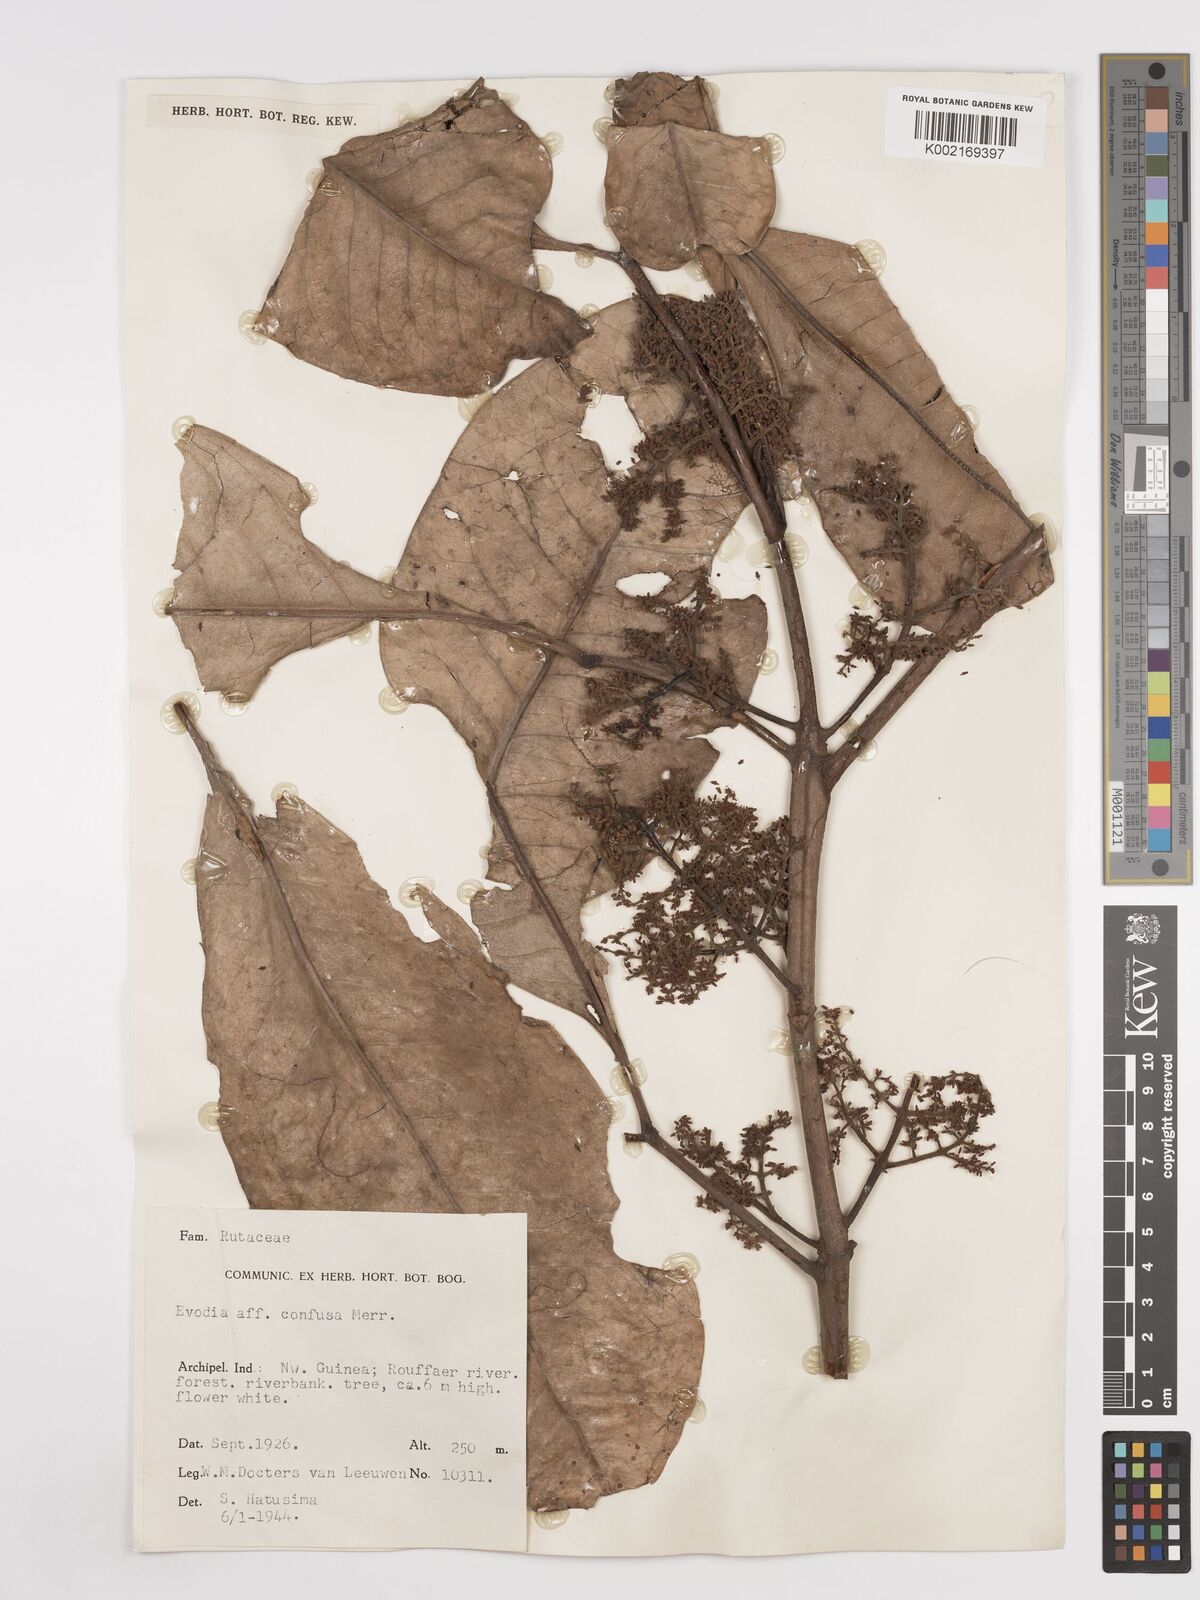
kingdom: Plantae
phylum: Tracheophyta
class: Magnoliopsida
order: Sapindales
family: Rutaceae
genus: Melicope
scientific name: Melicope frutescens
